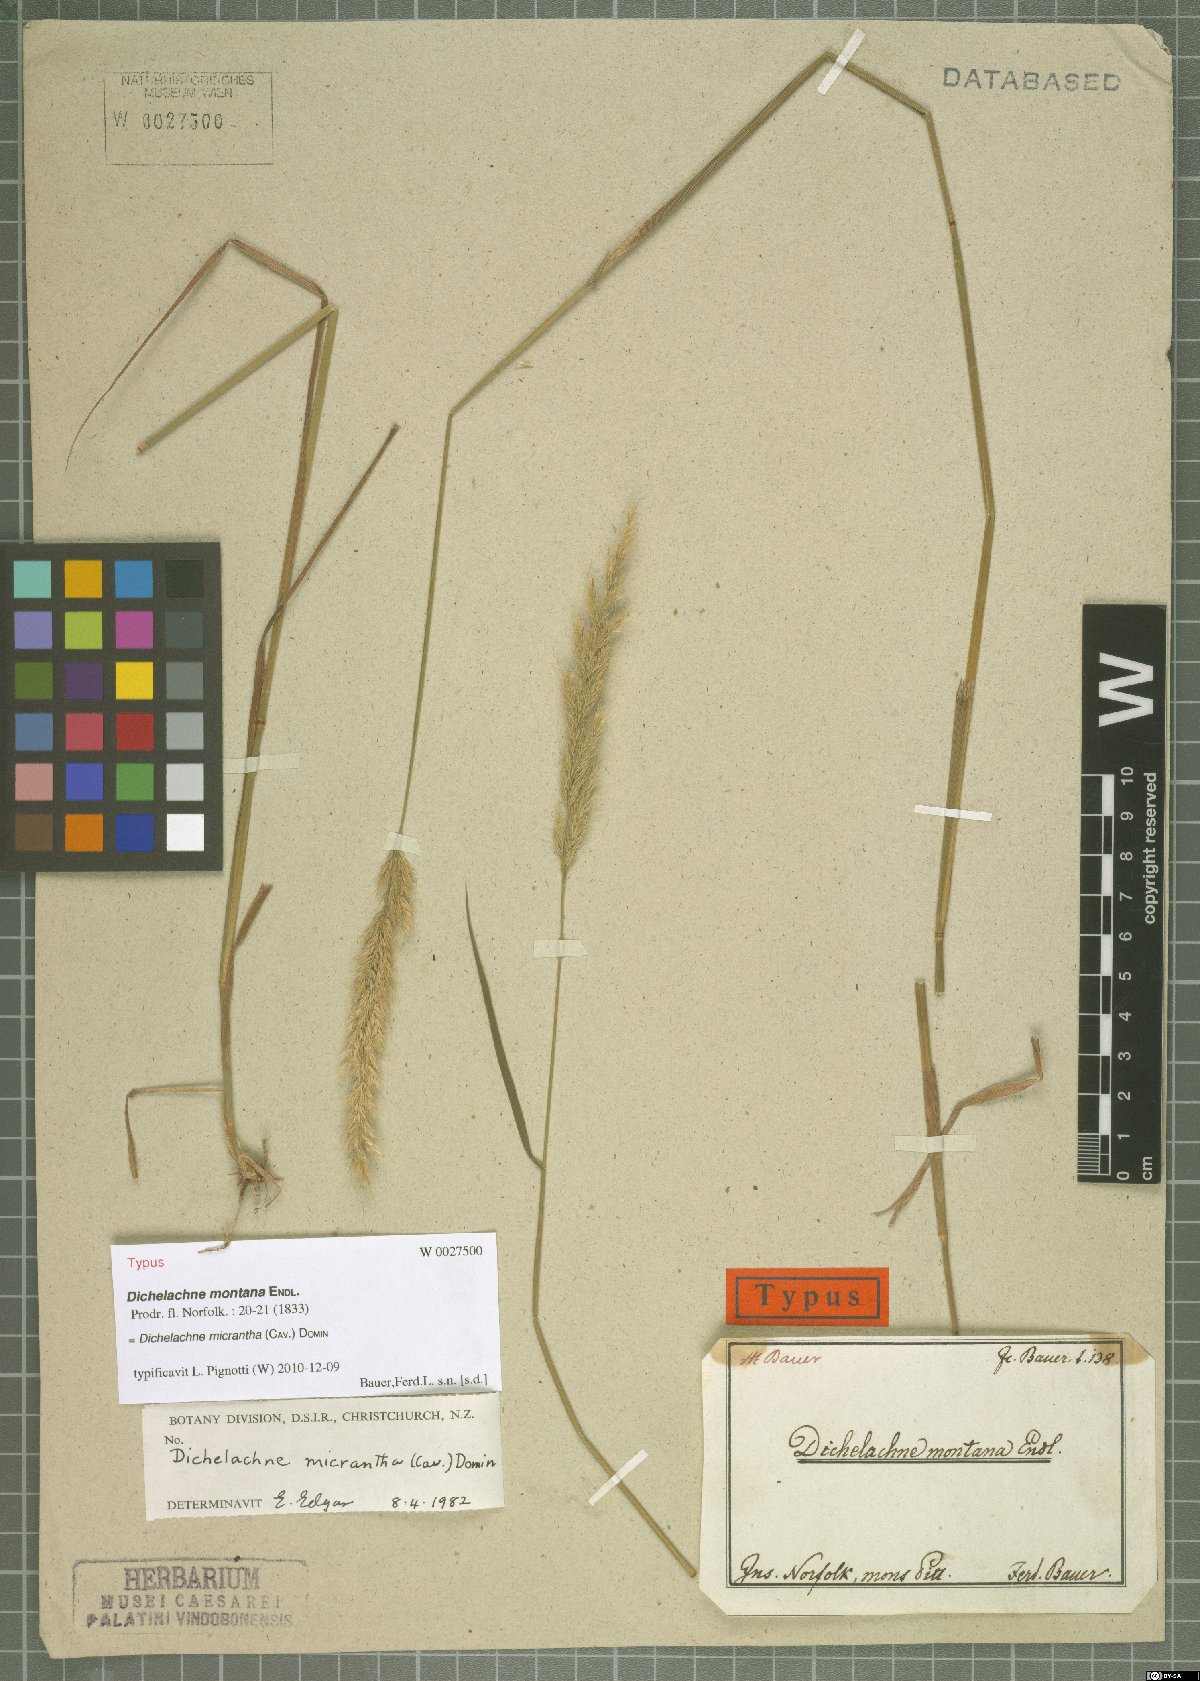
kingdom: Plantae
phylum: Tracheophyta
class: Liliopsida
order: Poales
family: Poaceae
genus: Dichelachne
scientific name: Dichelachne micrantha
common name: Plumegrass
